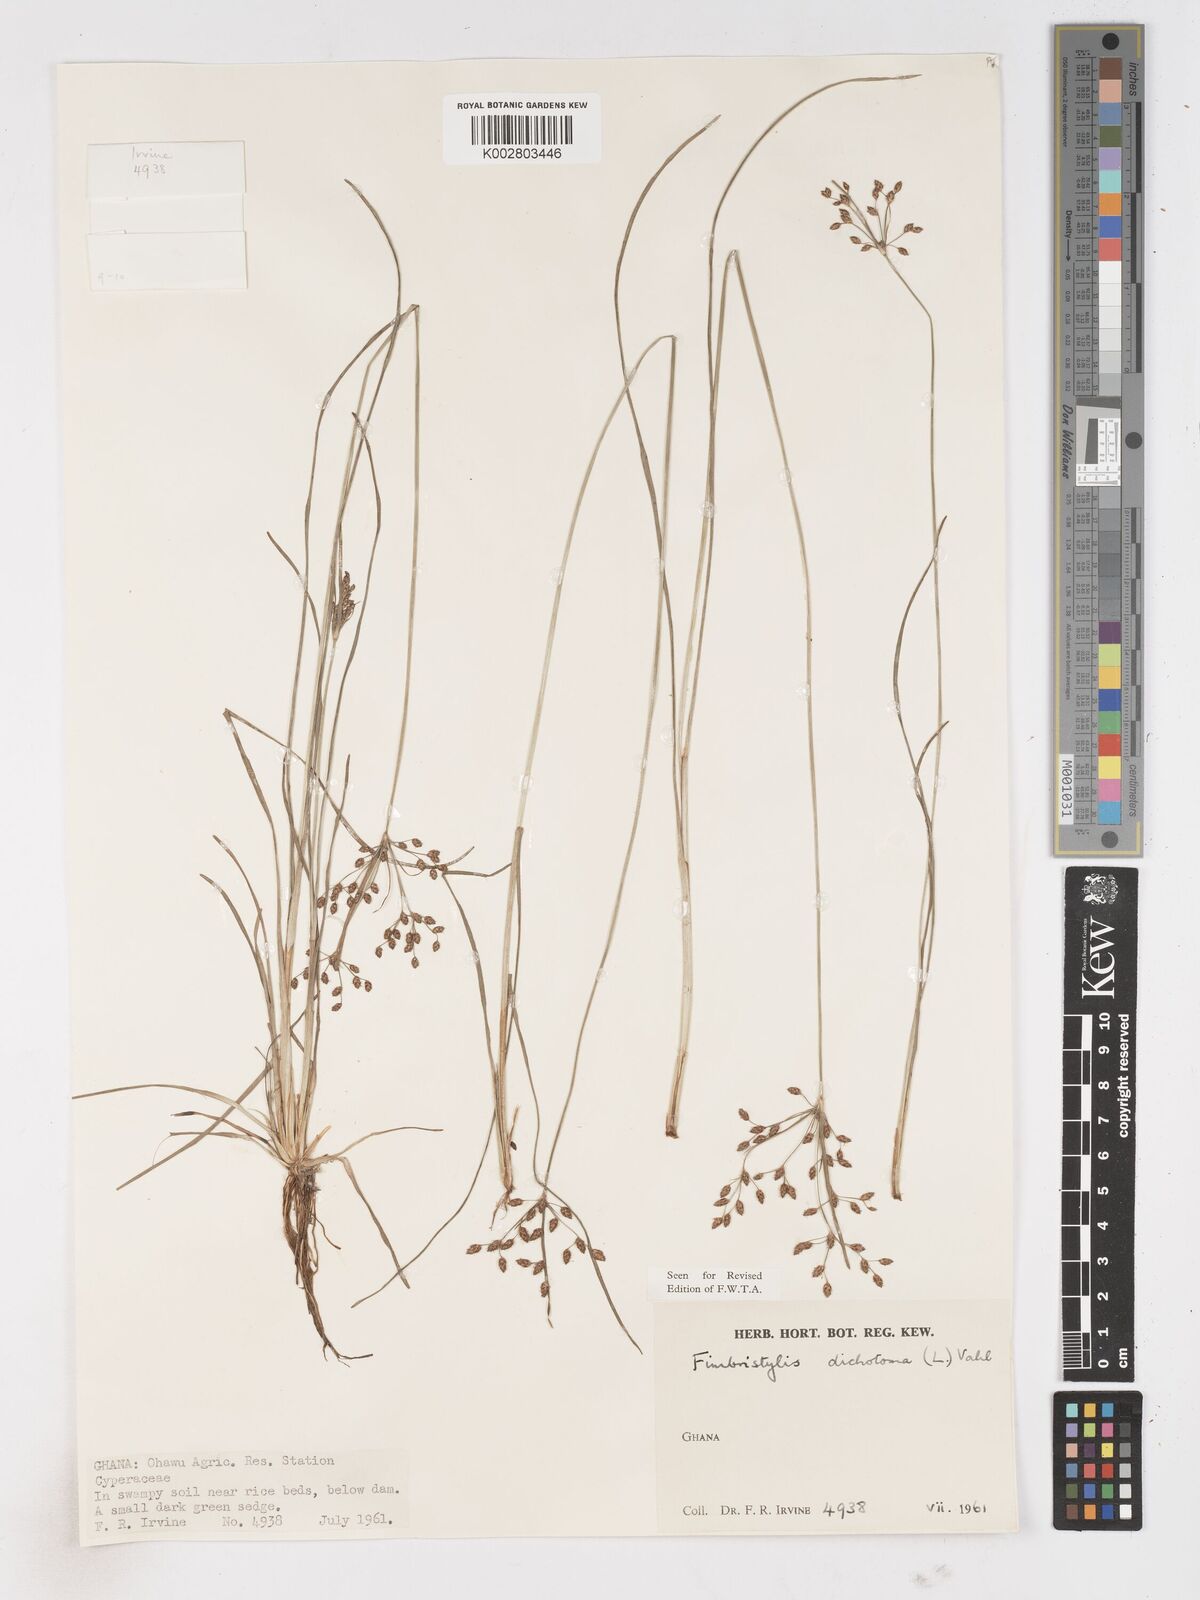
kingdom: Plantae
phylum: Tracheophyta
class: Liliopsida
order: Poales
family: Cyperaceae
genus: Fimbristylis
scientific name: Fimbristylis dichotoma
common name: Forked fimbry
